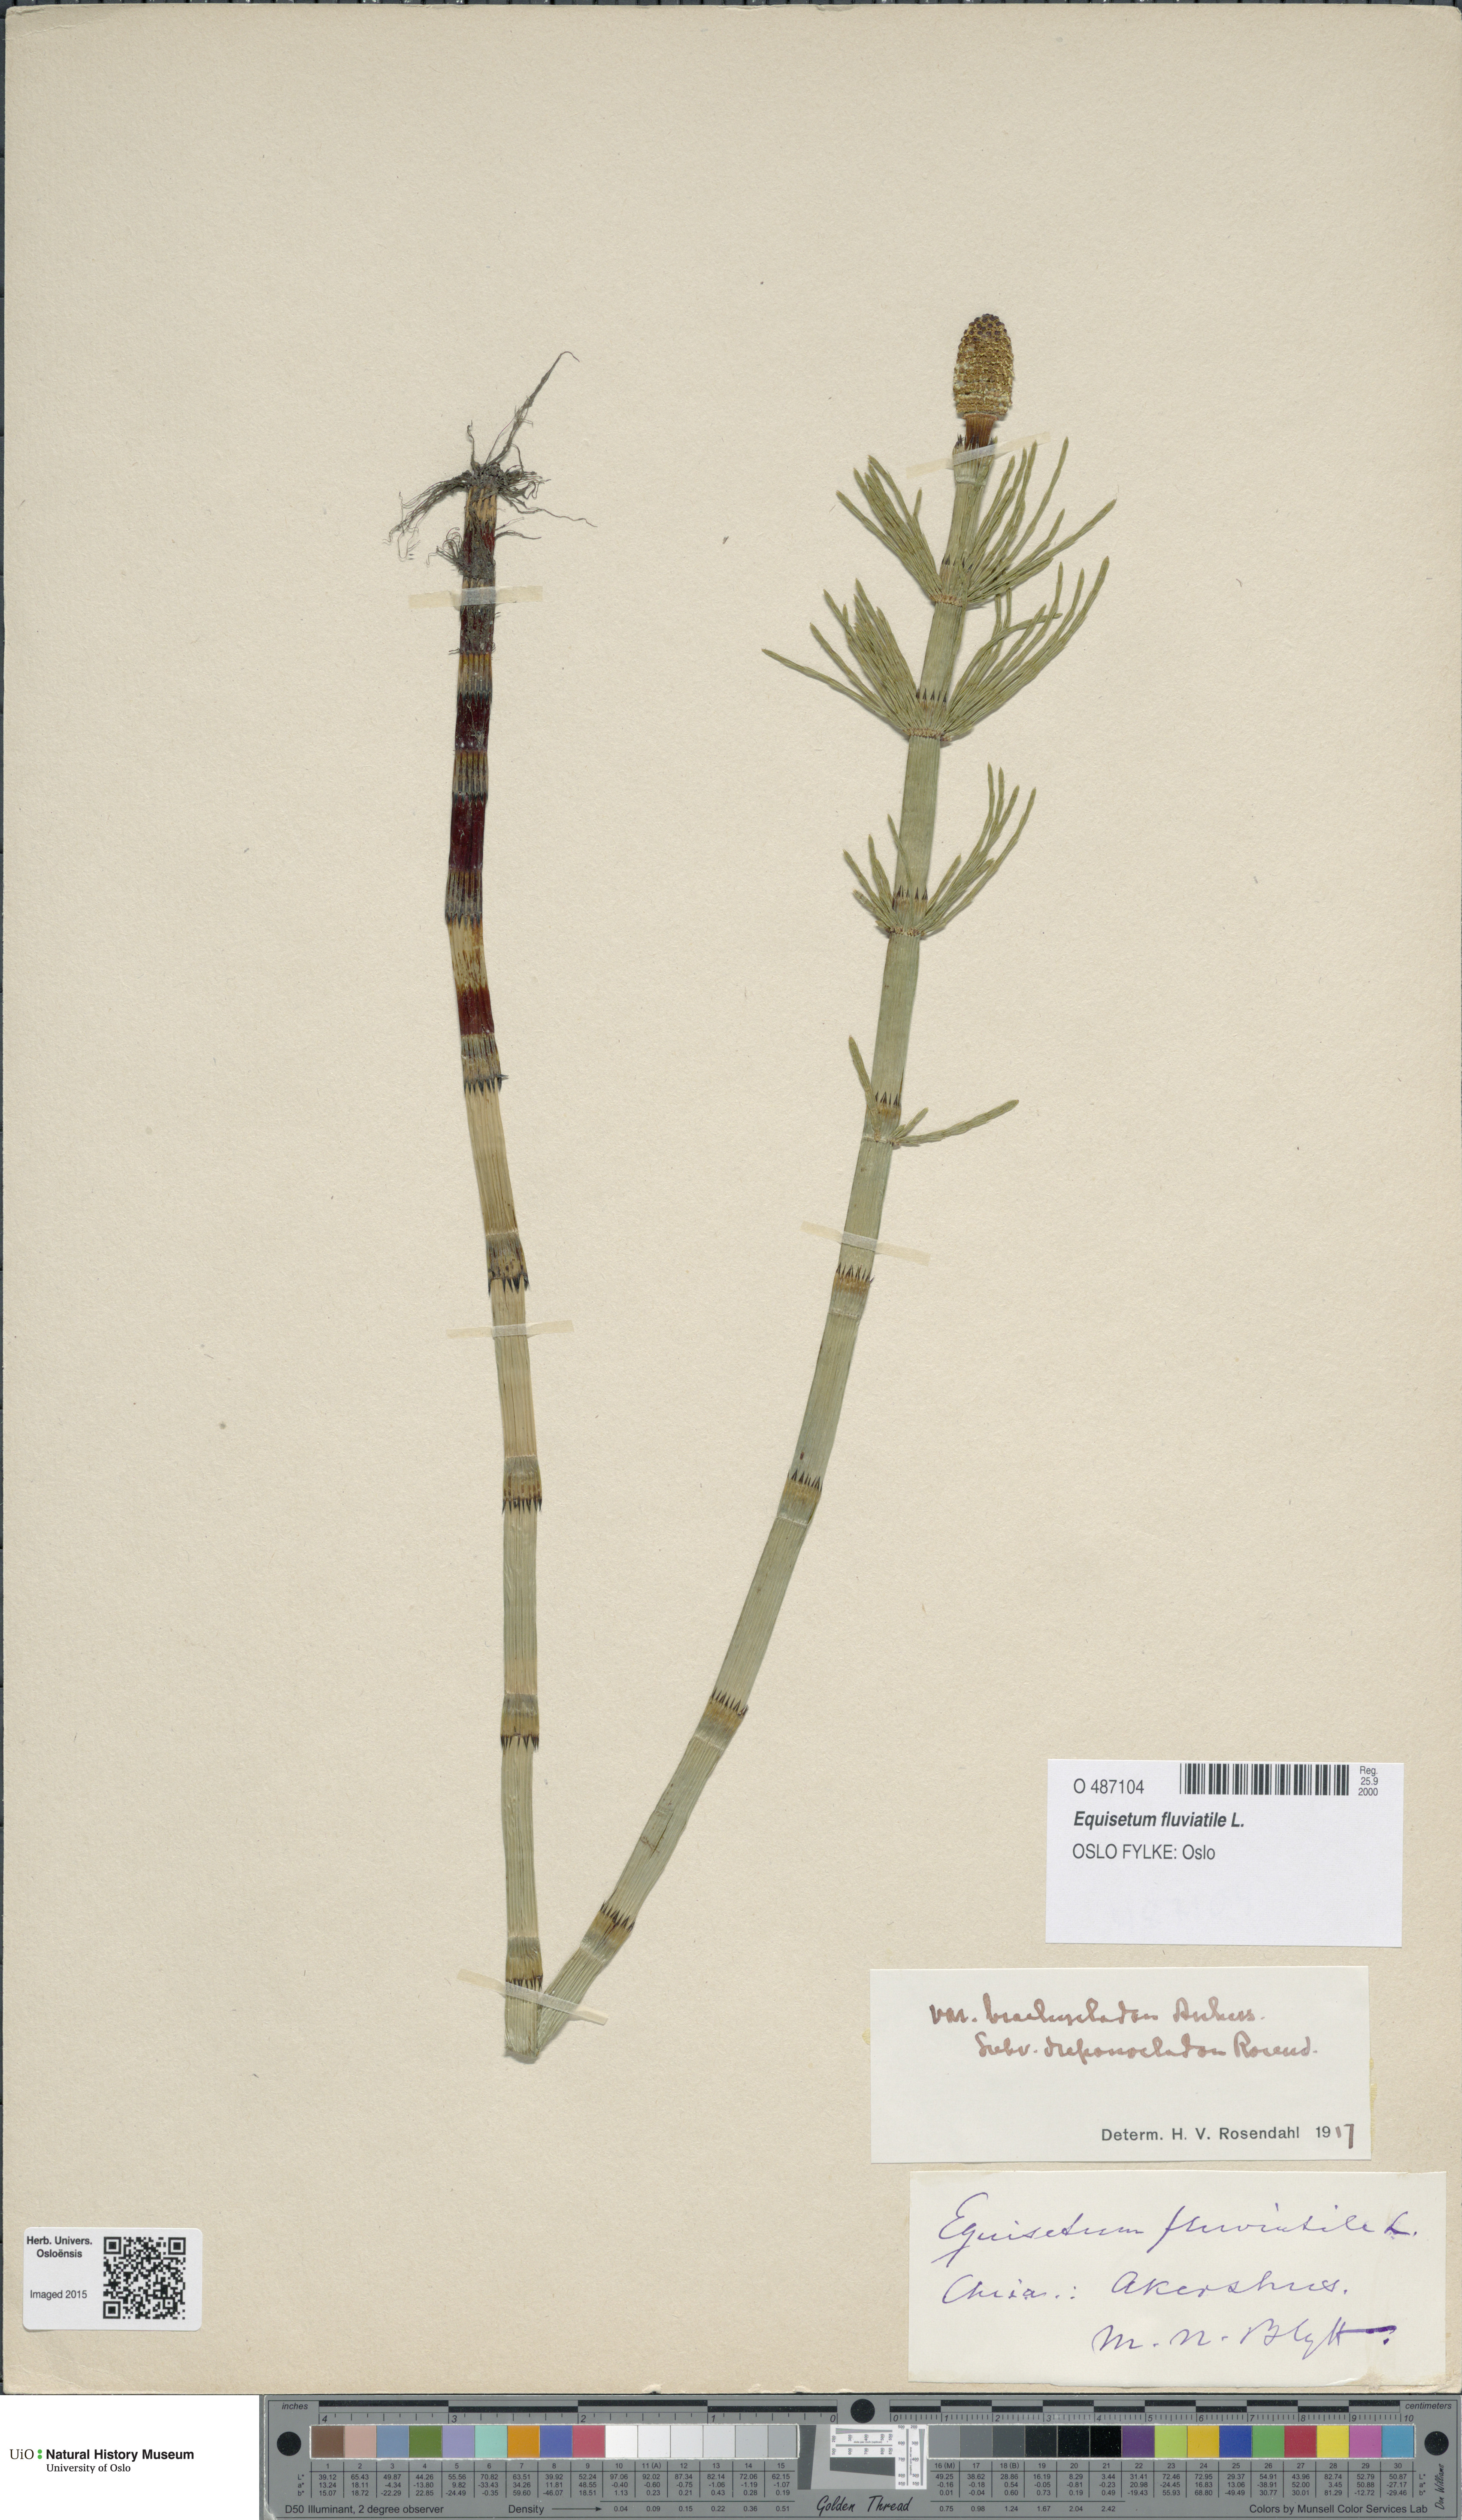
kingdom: Plantae
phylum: Tracheophyta
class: Polypodiopsida
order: Equisetales
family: Equisetaceae
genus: Equisetum
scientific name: Equisetum fluviatile
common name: Water horsetail
